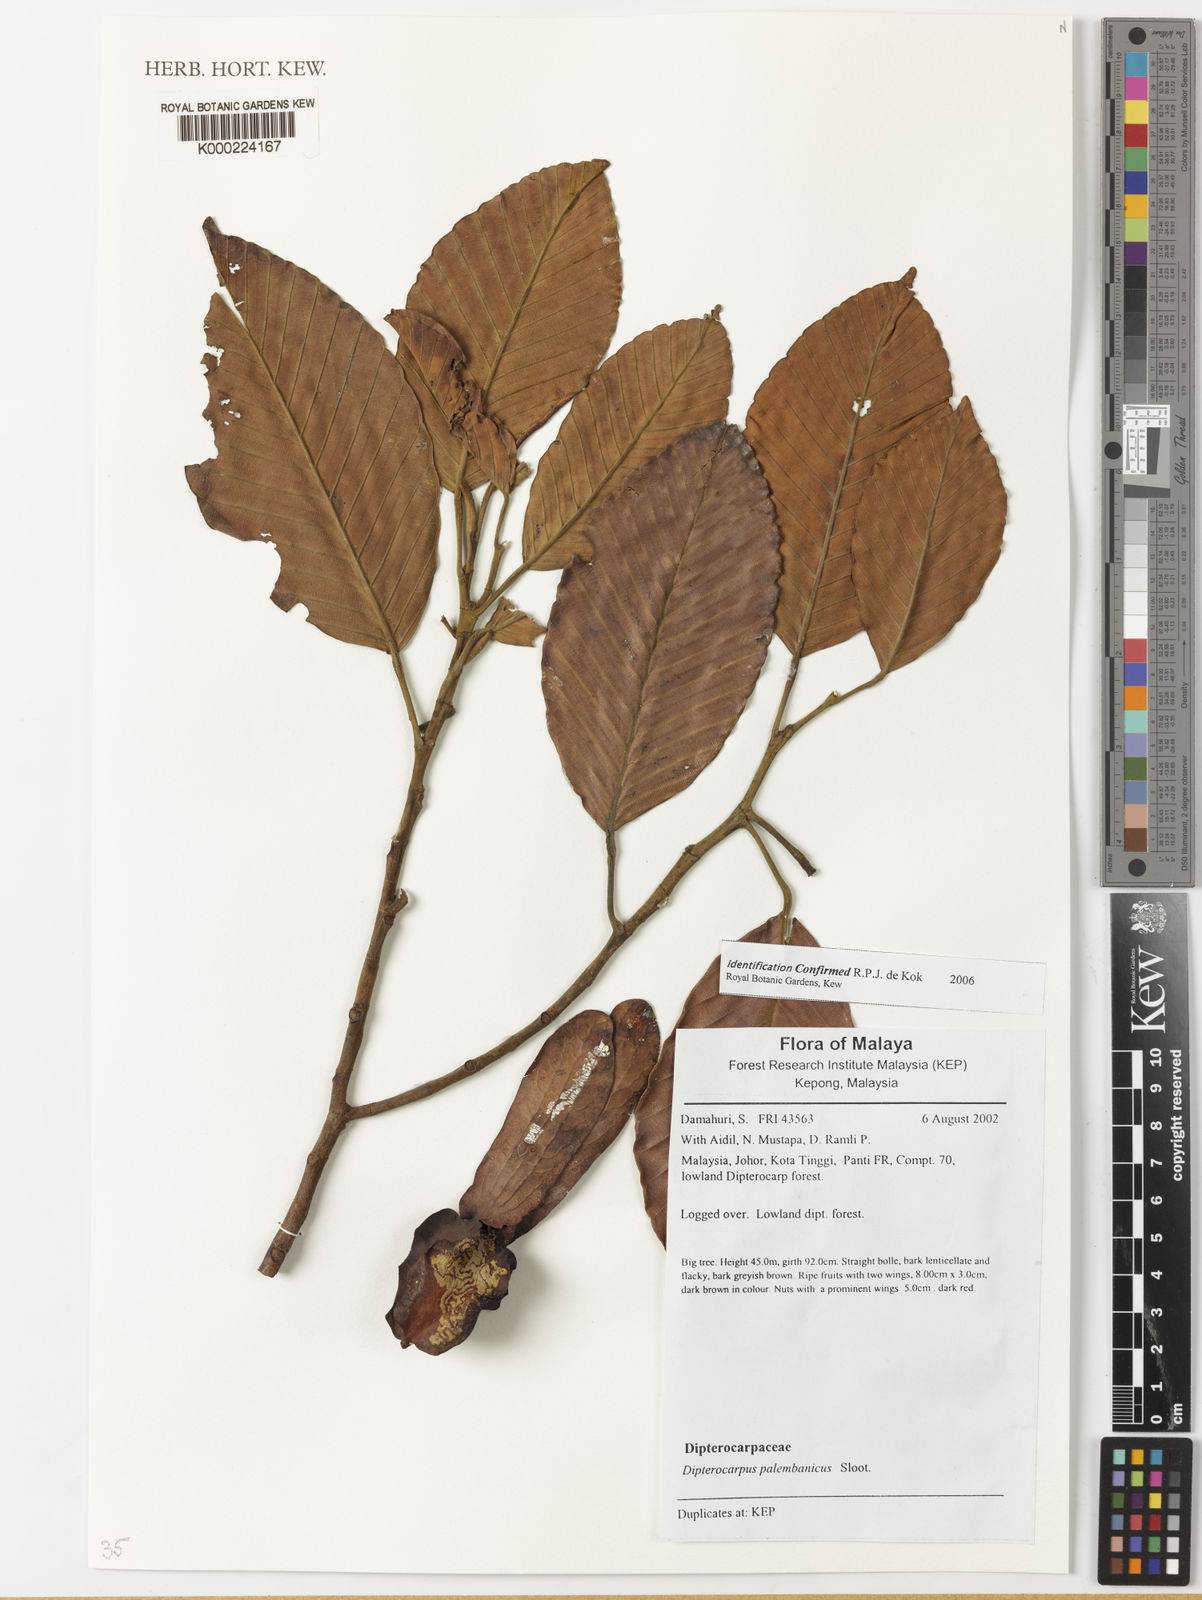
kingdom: Plantae
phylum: Tracheophyta
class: Magnoliopsida
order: Malvales
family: Dipterocarpaceae
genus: Dipterocarpus
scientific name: Dipterocarpus palembanicus
